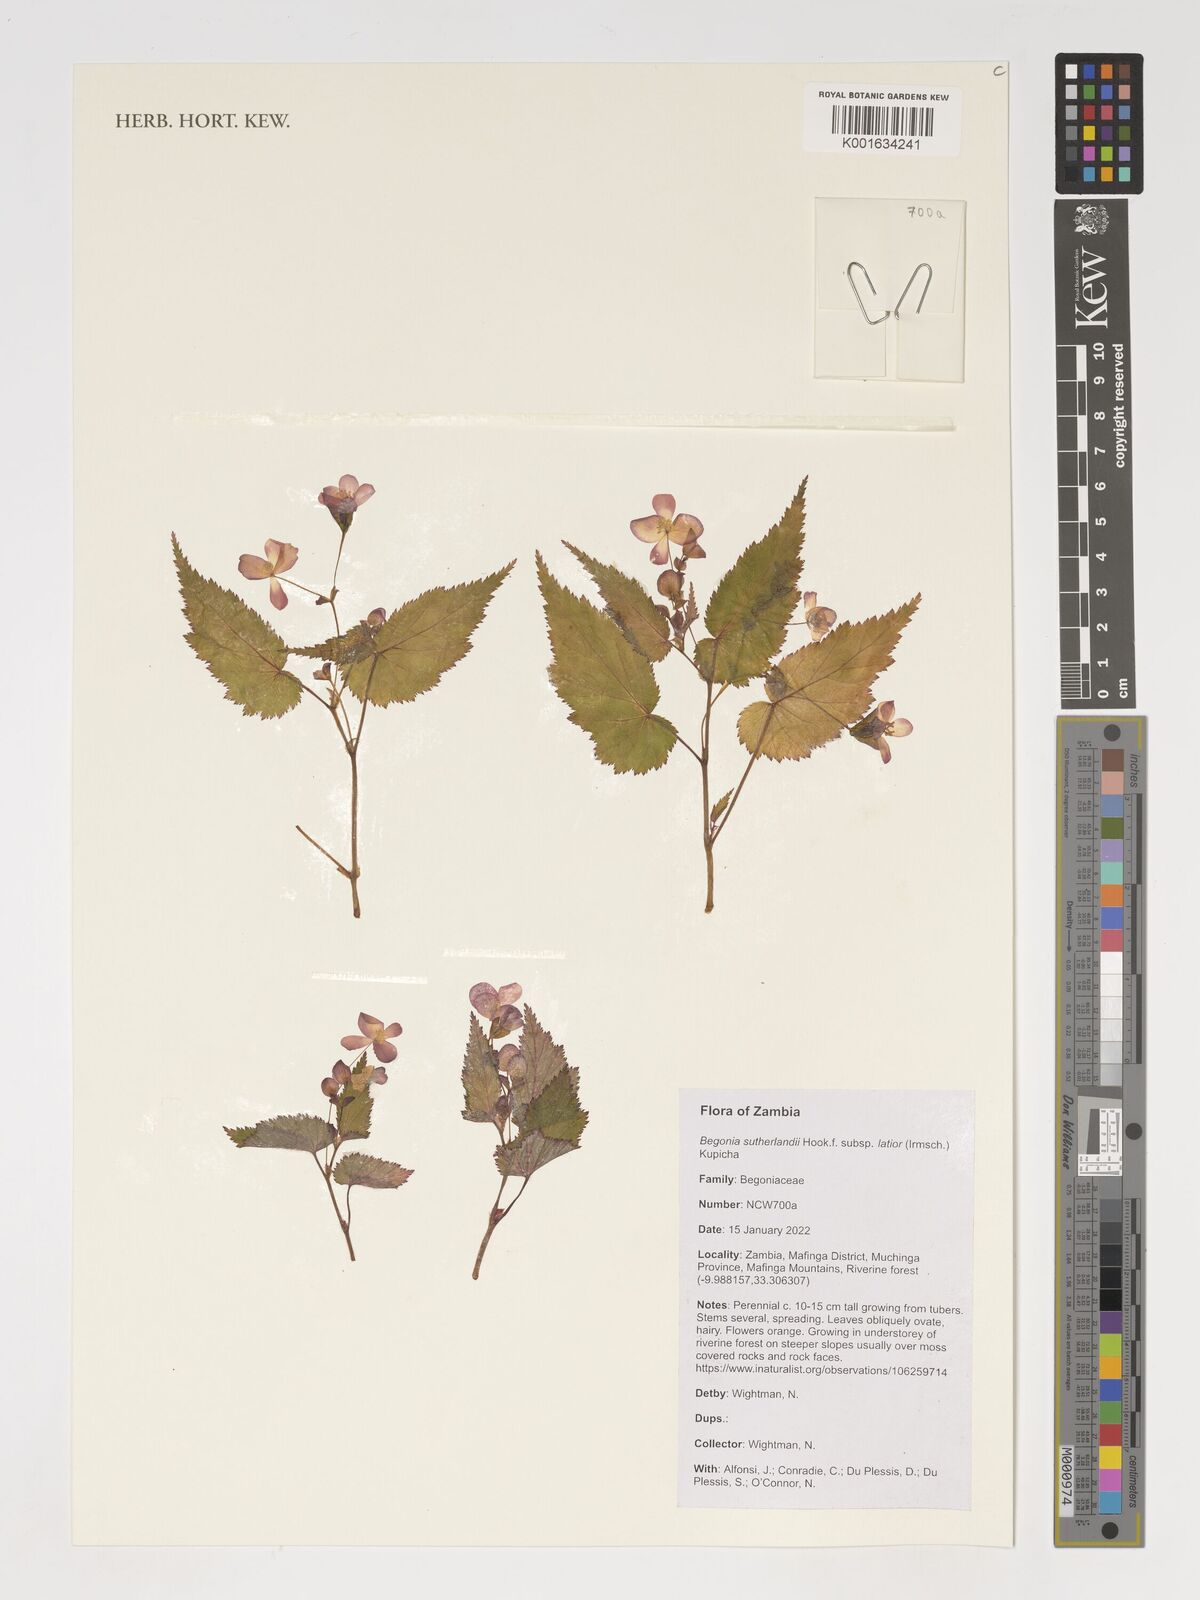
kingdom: Plantae
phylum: Tracheophyta
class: Magnoliopsida
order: Cucurbitales
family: Begoniaceae
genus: Begonia
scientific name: Begonia sutherlandii
